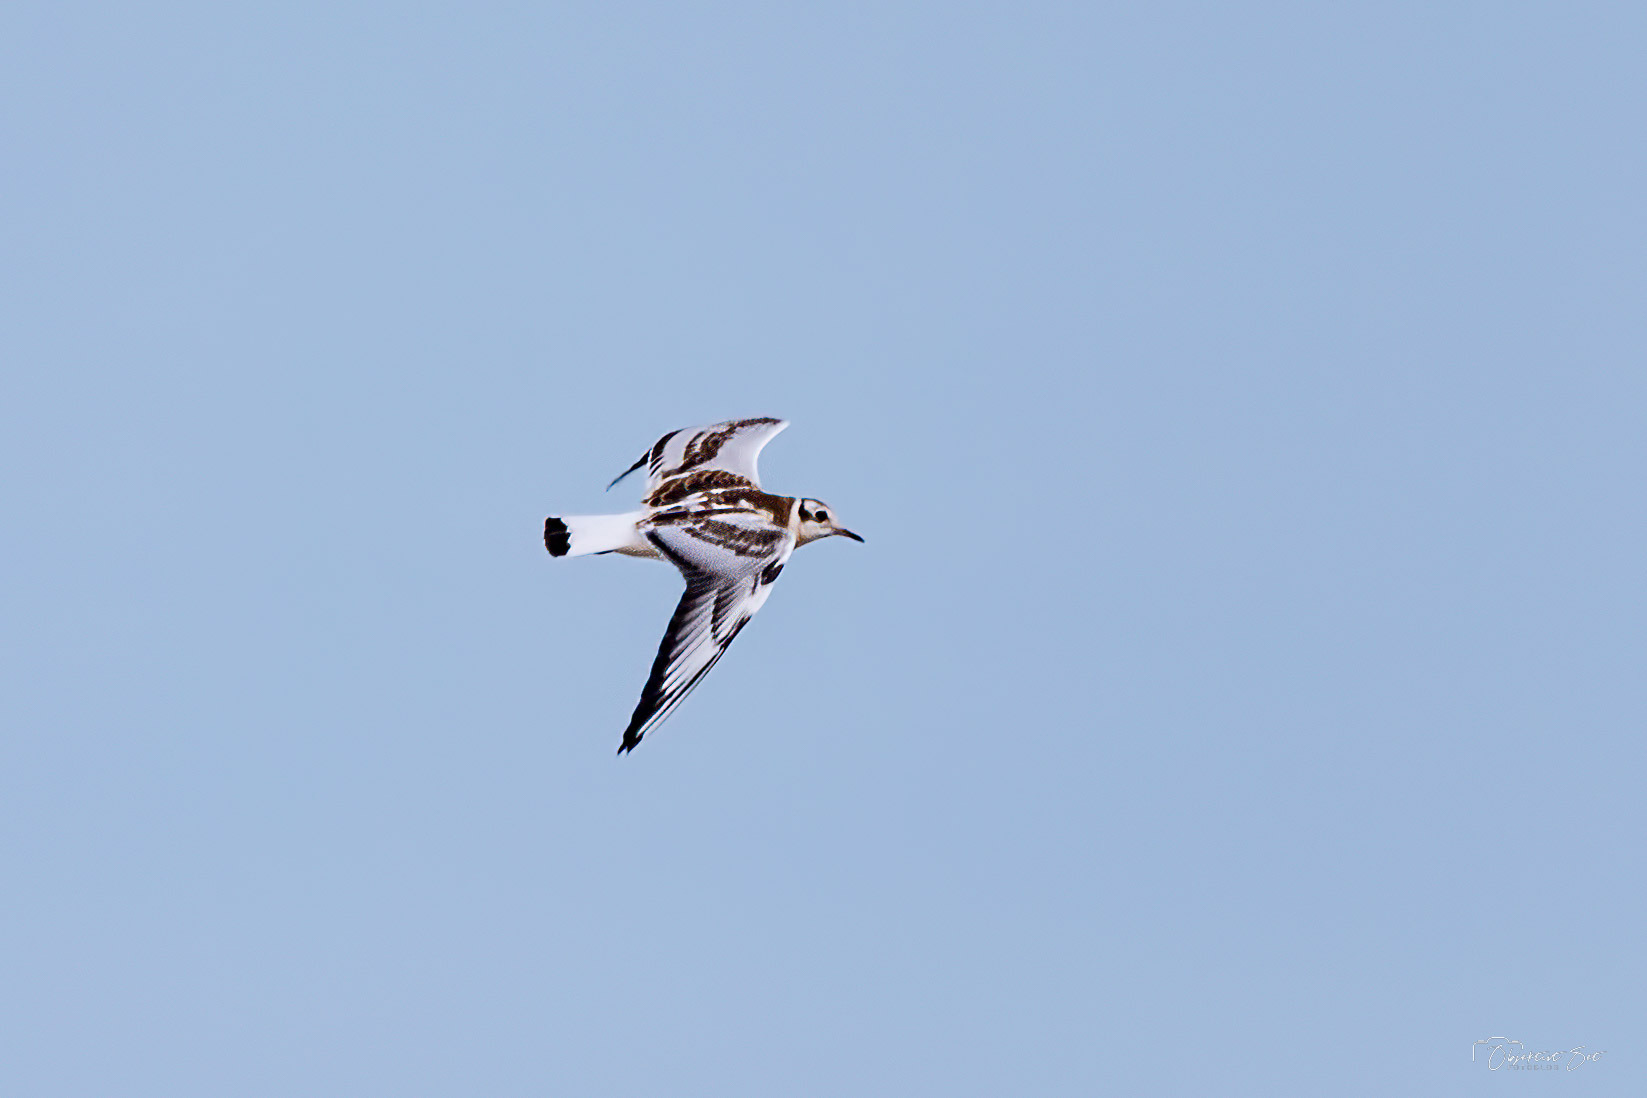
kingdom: Animalia
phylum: Chordata
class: Aves
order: Charadriiformes
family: Laridae
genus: Chroicocephalus
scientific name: Chroicocephalus ridibundus
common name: Hættemåge
